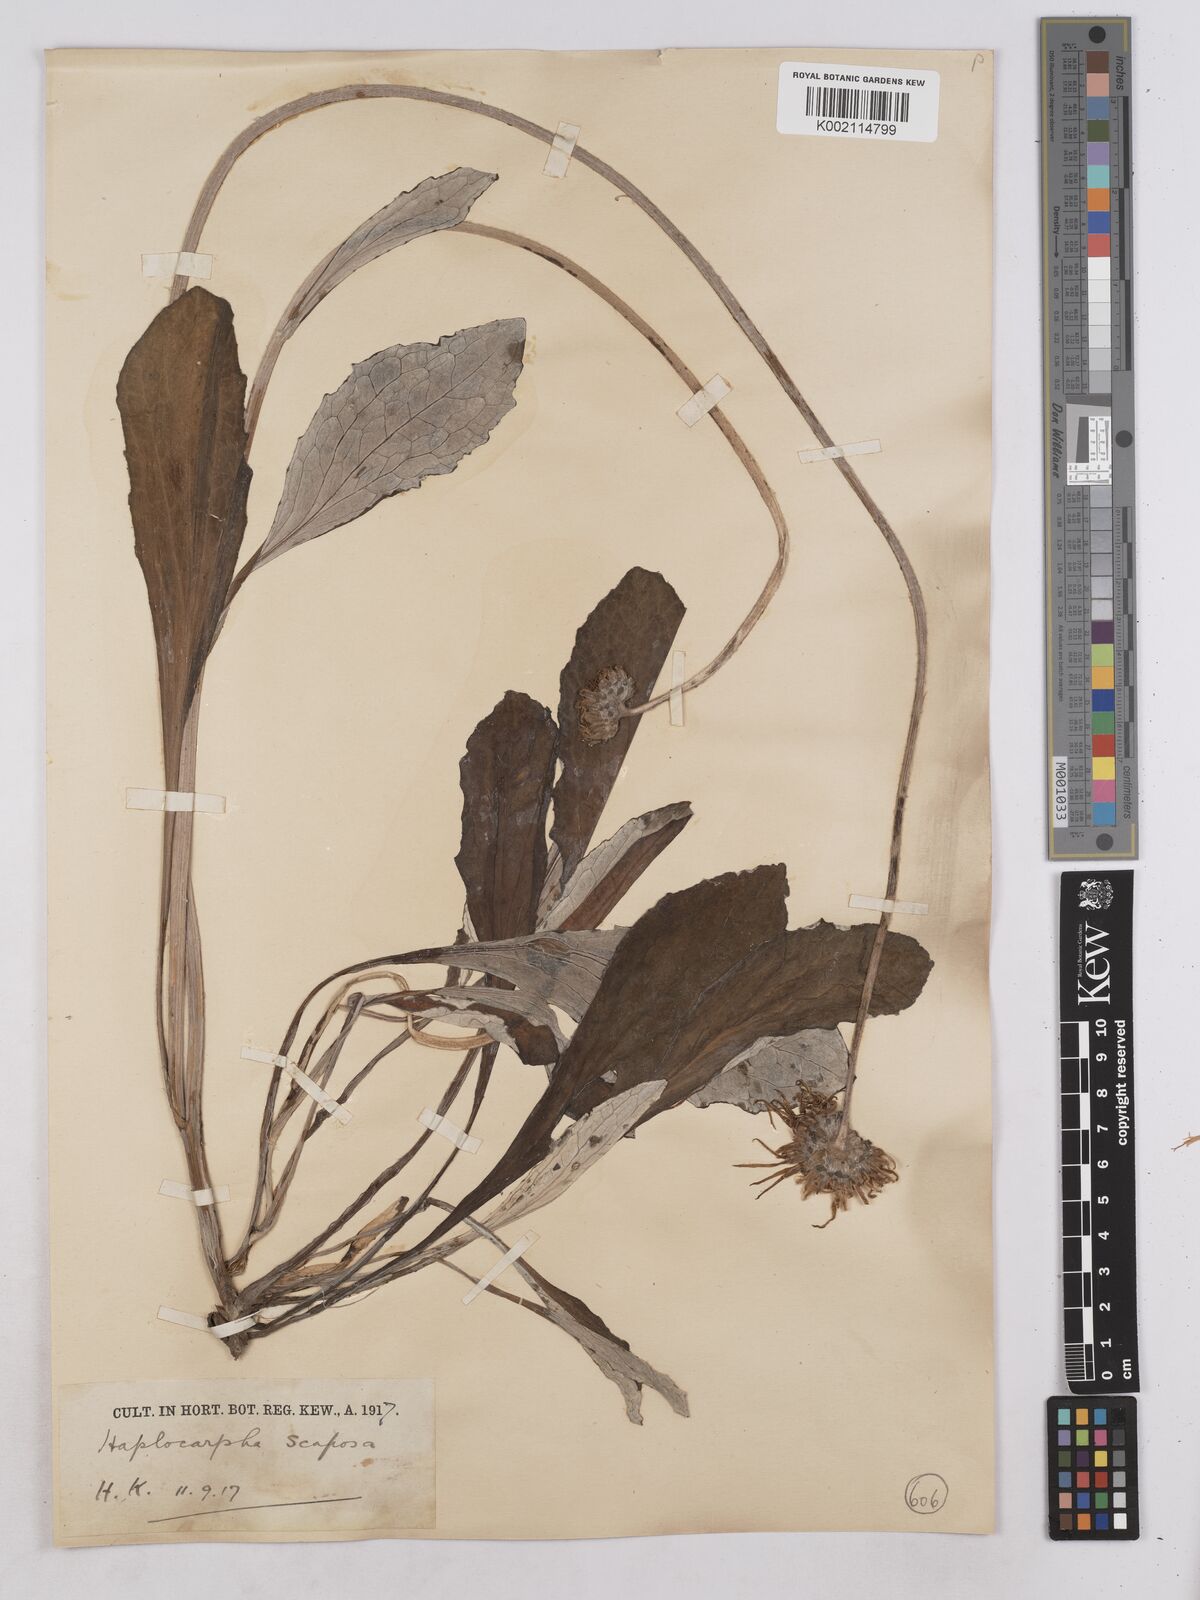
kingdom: Plantae
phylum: Tracheophyta
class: Magnoliopsida
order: Asterales
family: Asteraceae
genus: Haplocarpha
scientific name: Haplocarpha scaposa
